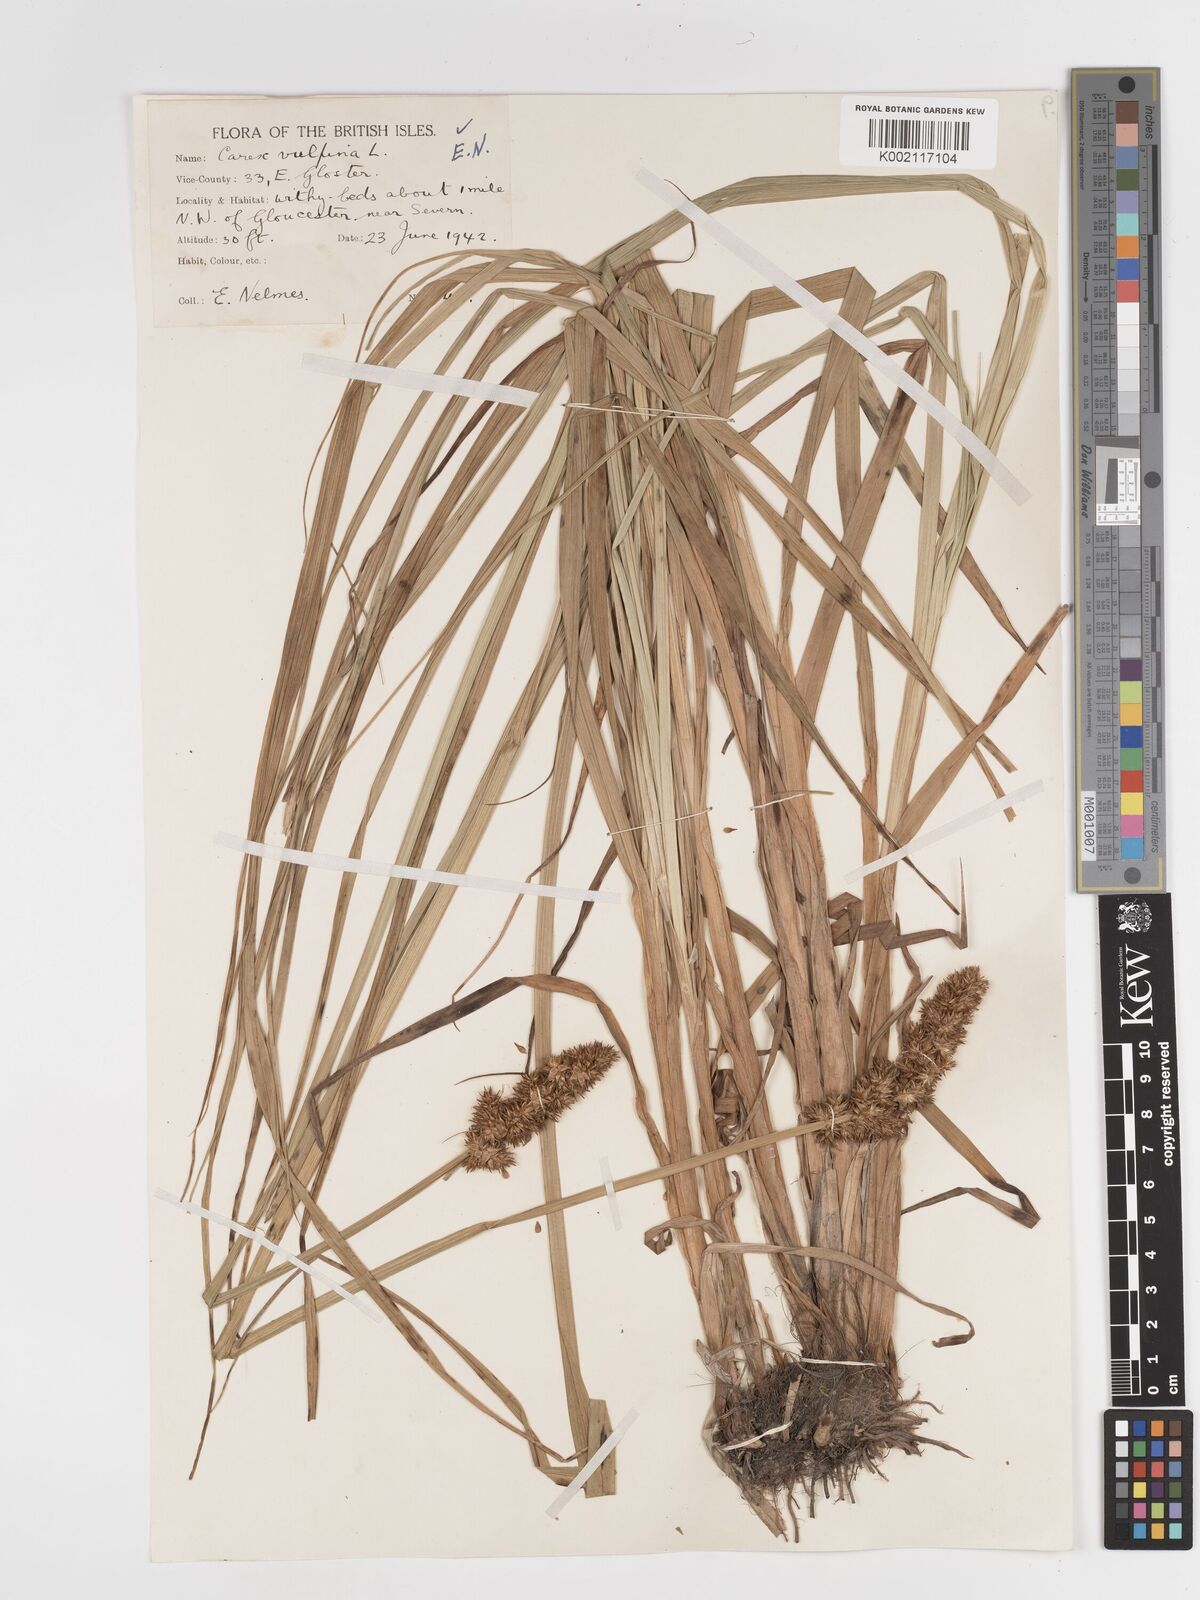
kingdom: Plantae
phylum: Tracheophyta
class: Liliopsida
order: Poales
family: Cyperaceae
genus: Carex
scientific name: Carex vulpina
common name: True fox-sedge
